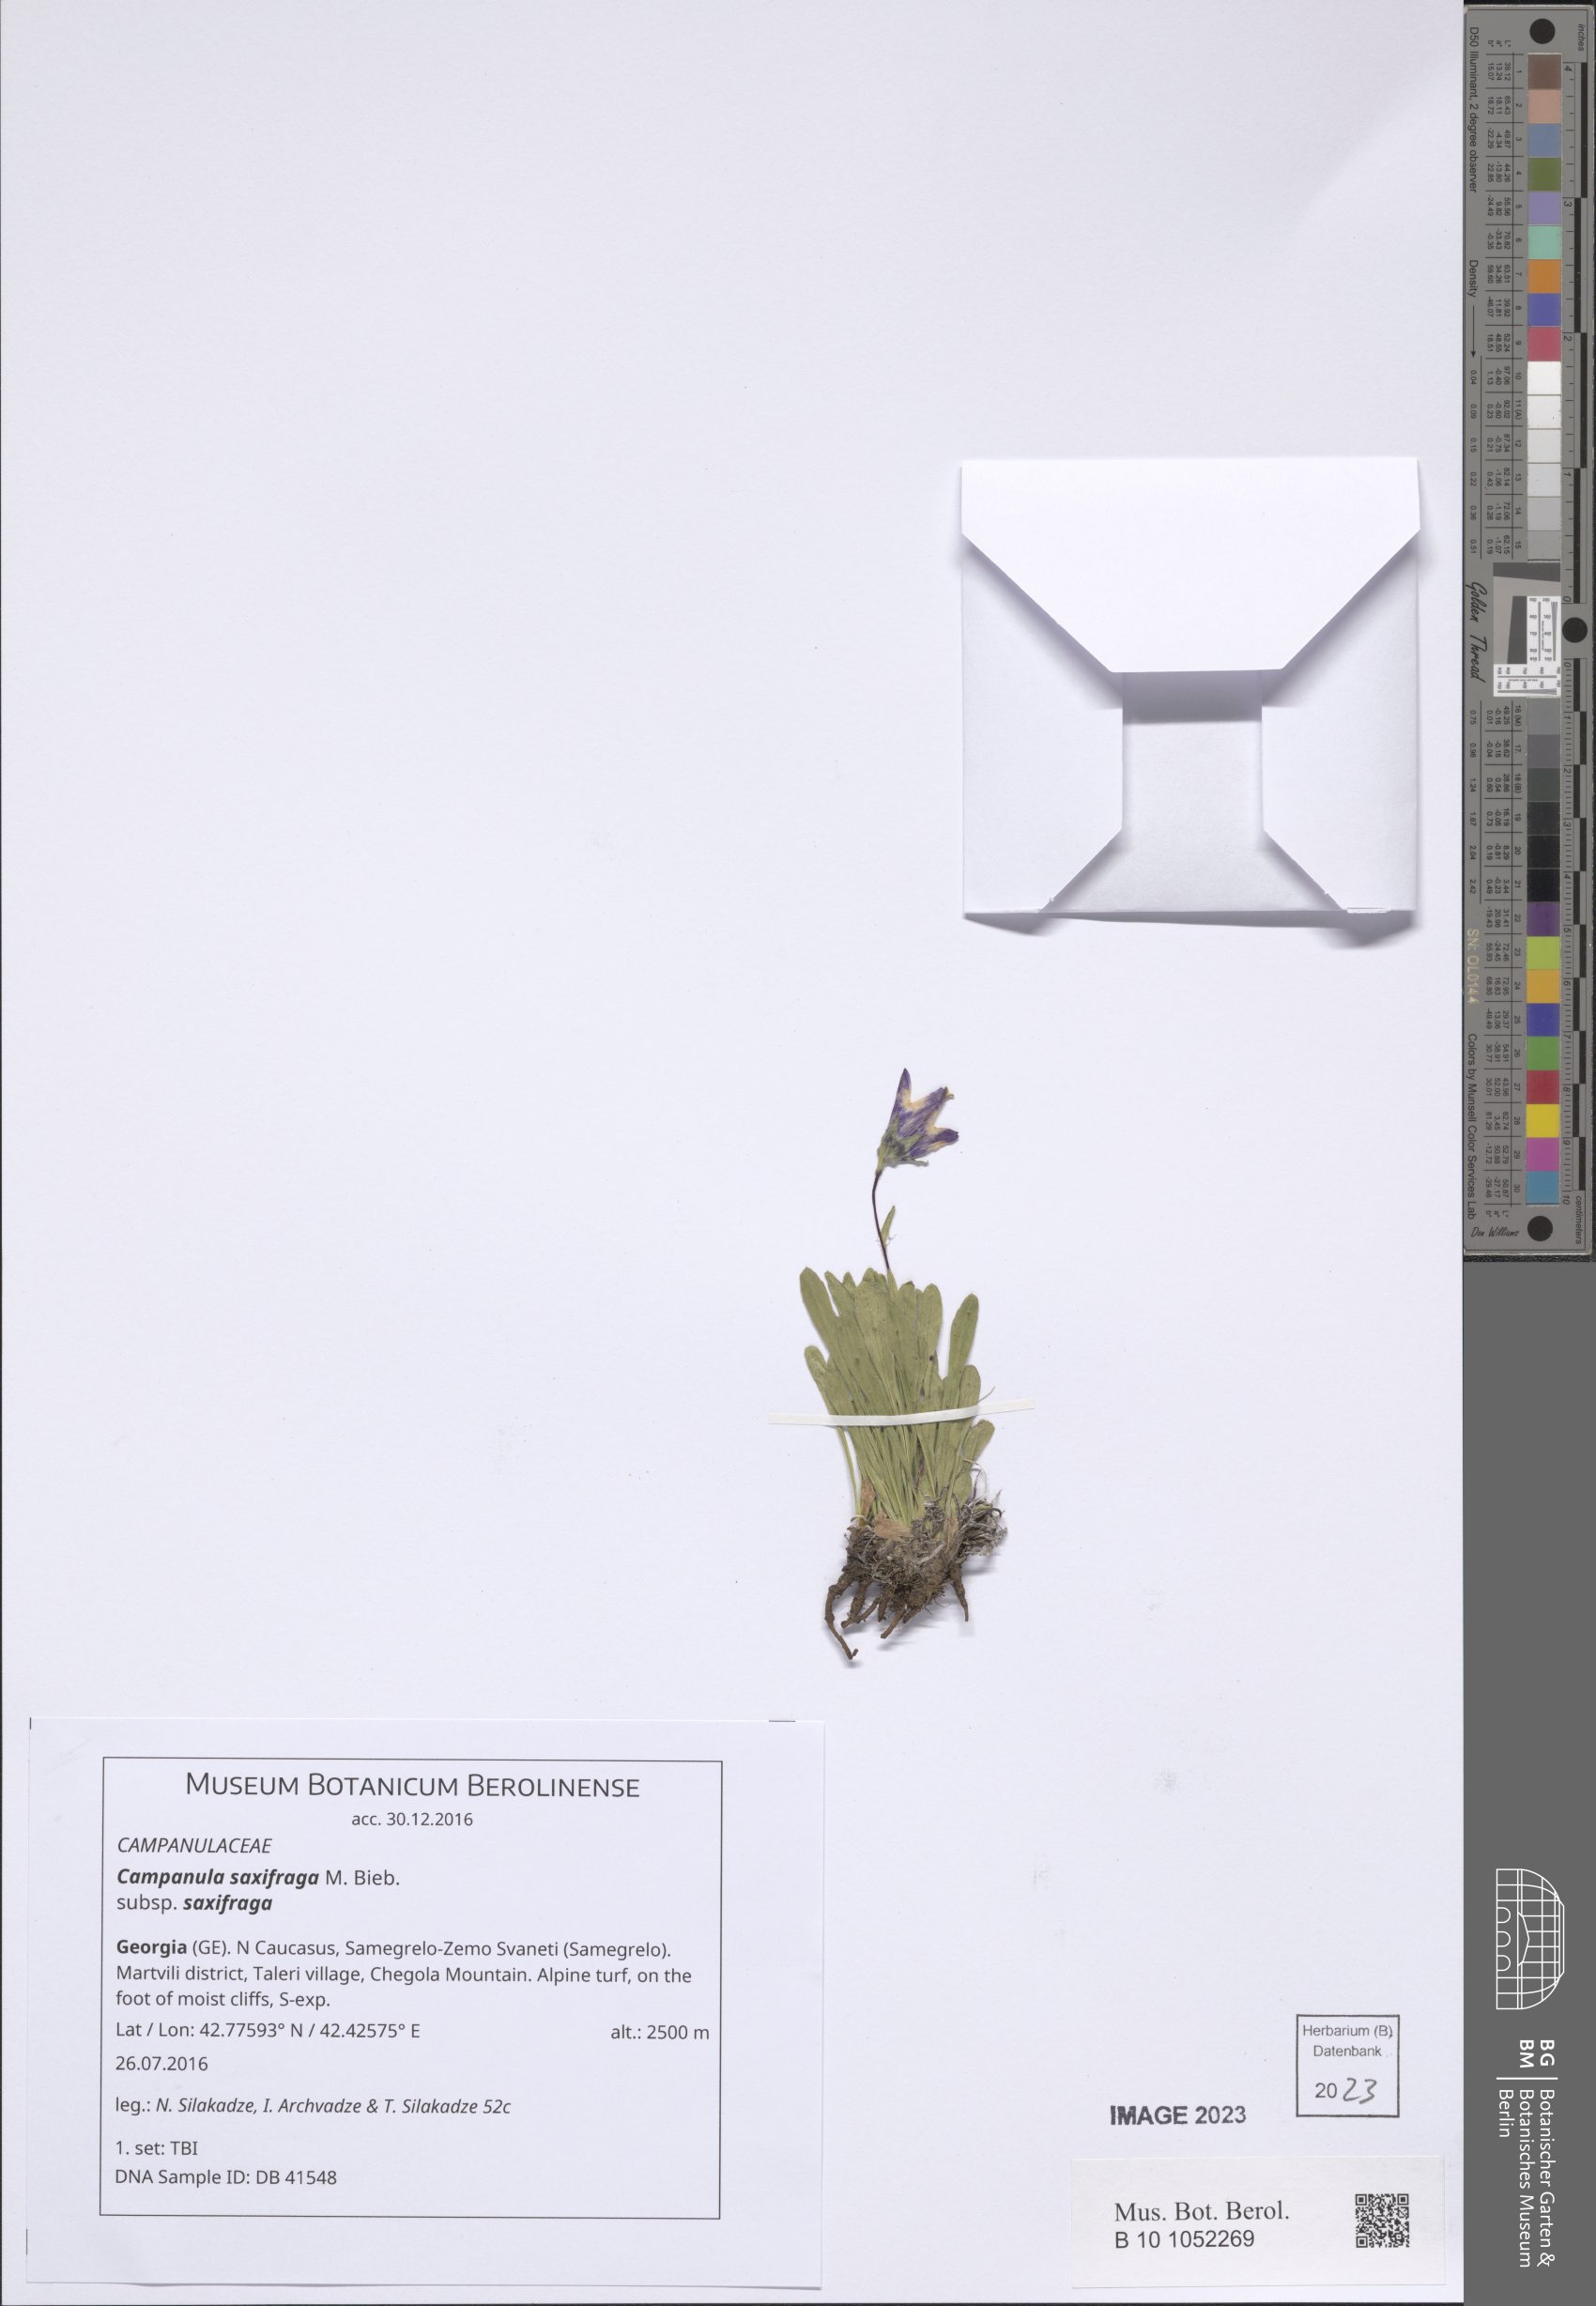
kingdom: Plantae
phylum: Tracheophyta
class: Magnoliopsida
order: Asterales
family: Campanulaceae
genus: Campanula
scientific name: Campanula saxifraga
